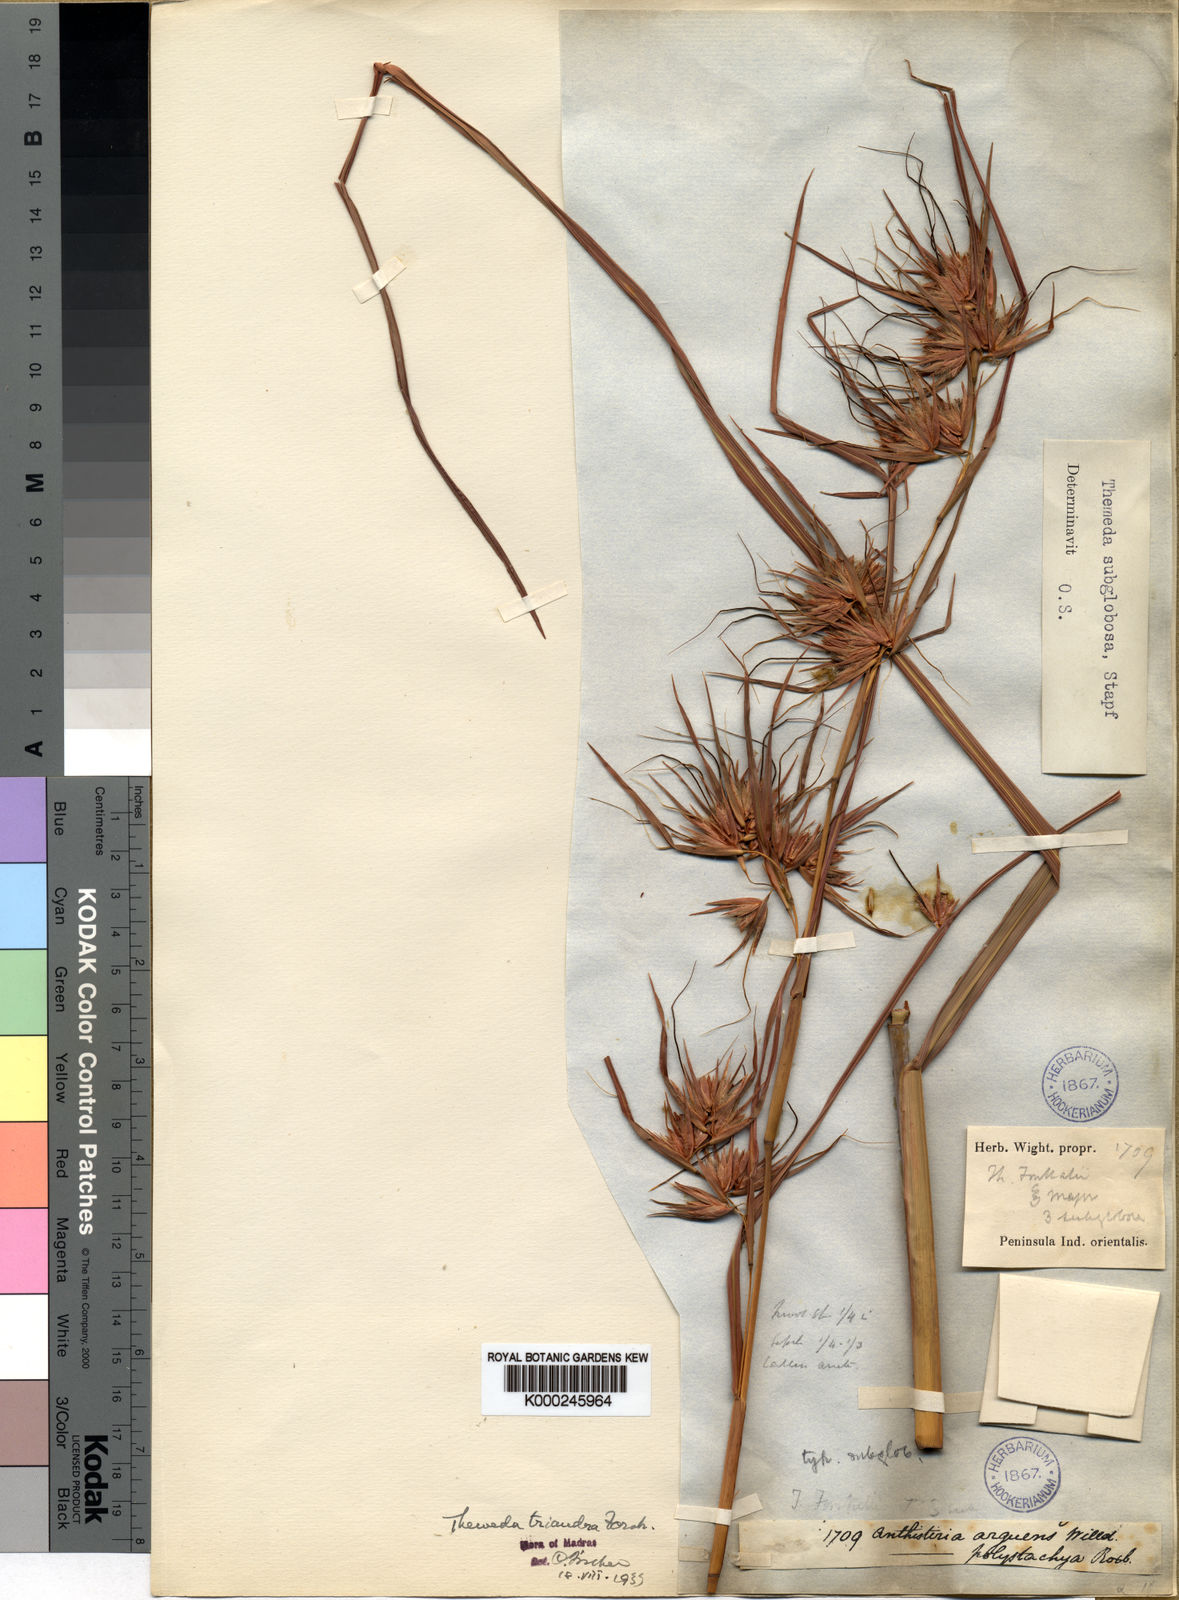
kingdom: Plantae
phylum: Tracheophyta
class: Liliopsida
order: Poales
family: Poaceae
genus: Themeda
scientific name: Themeda triandra
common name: Kangaroo grass
